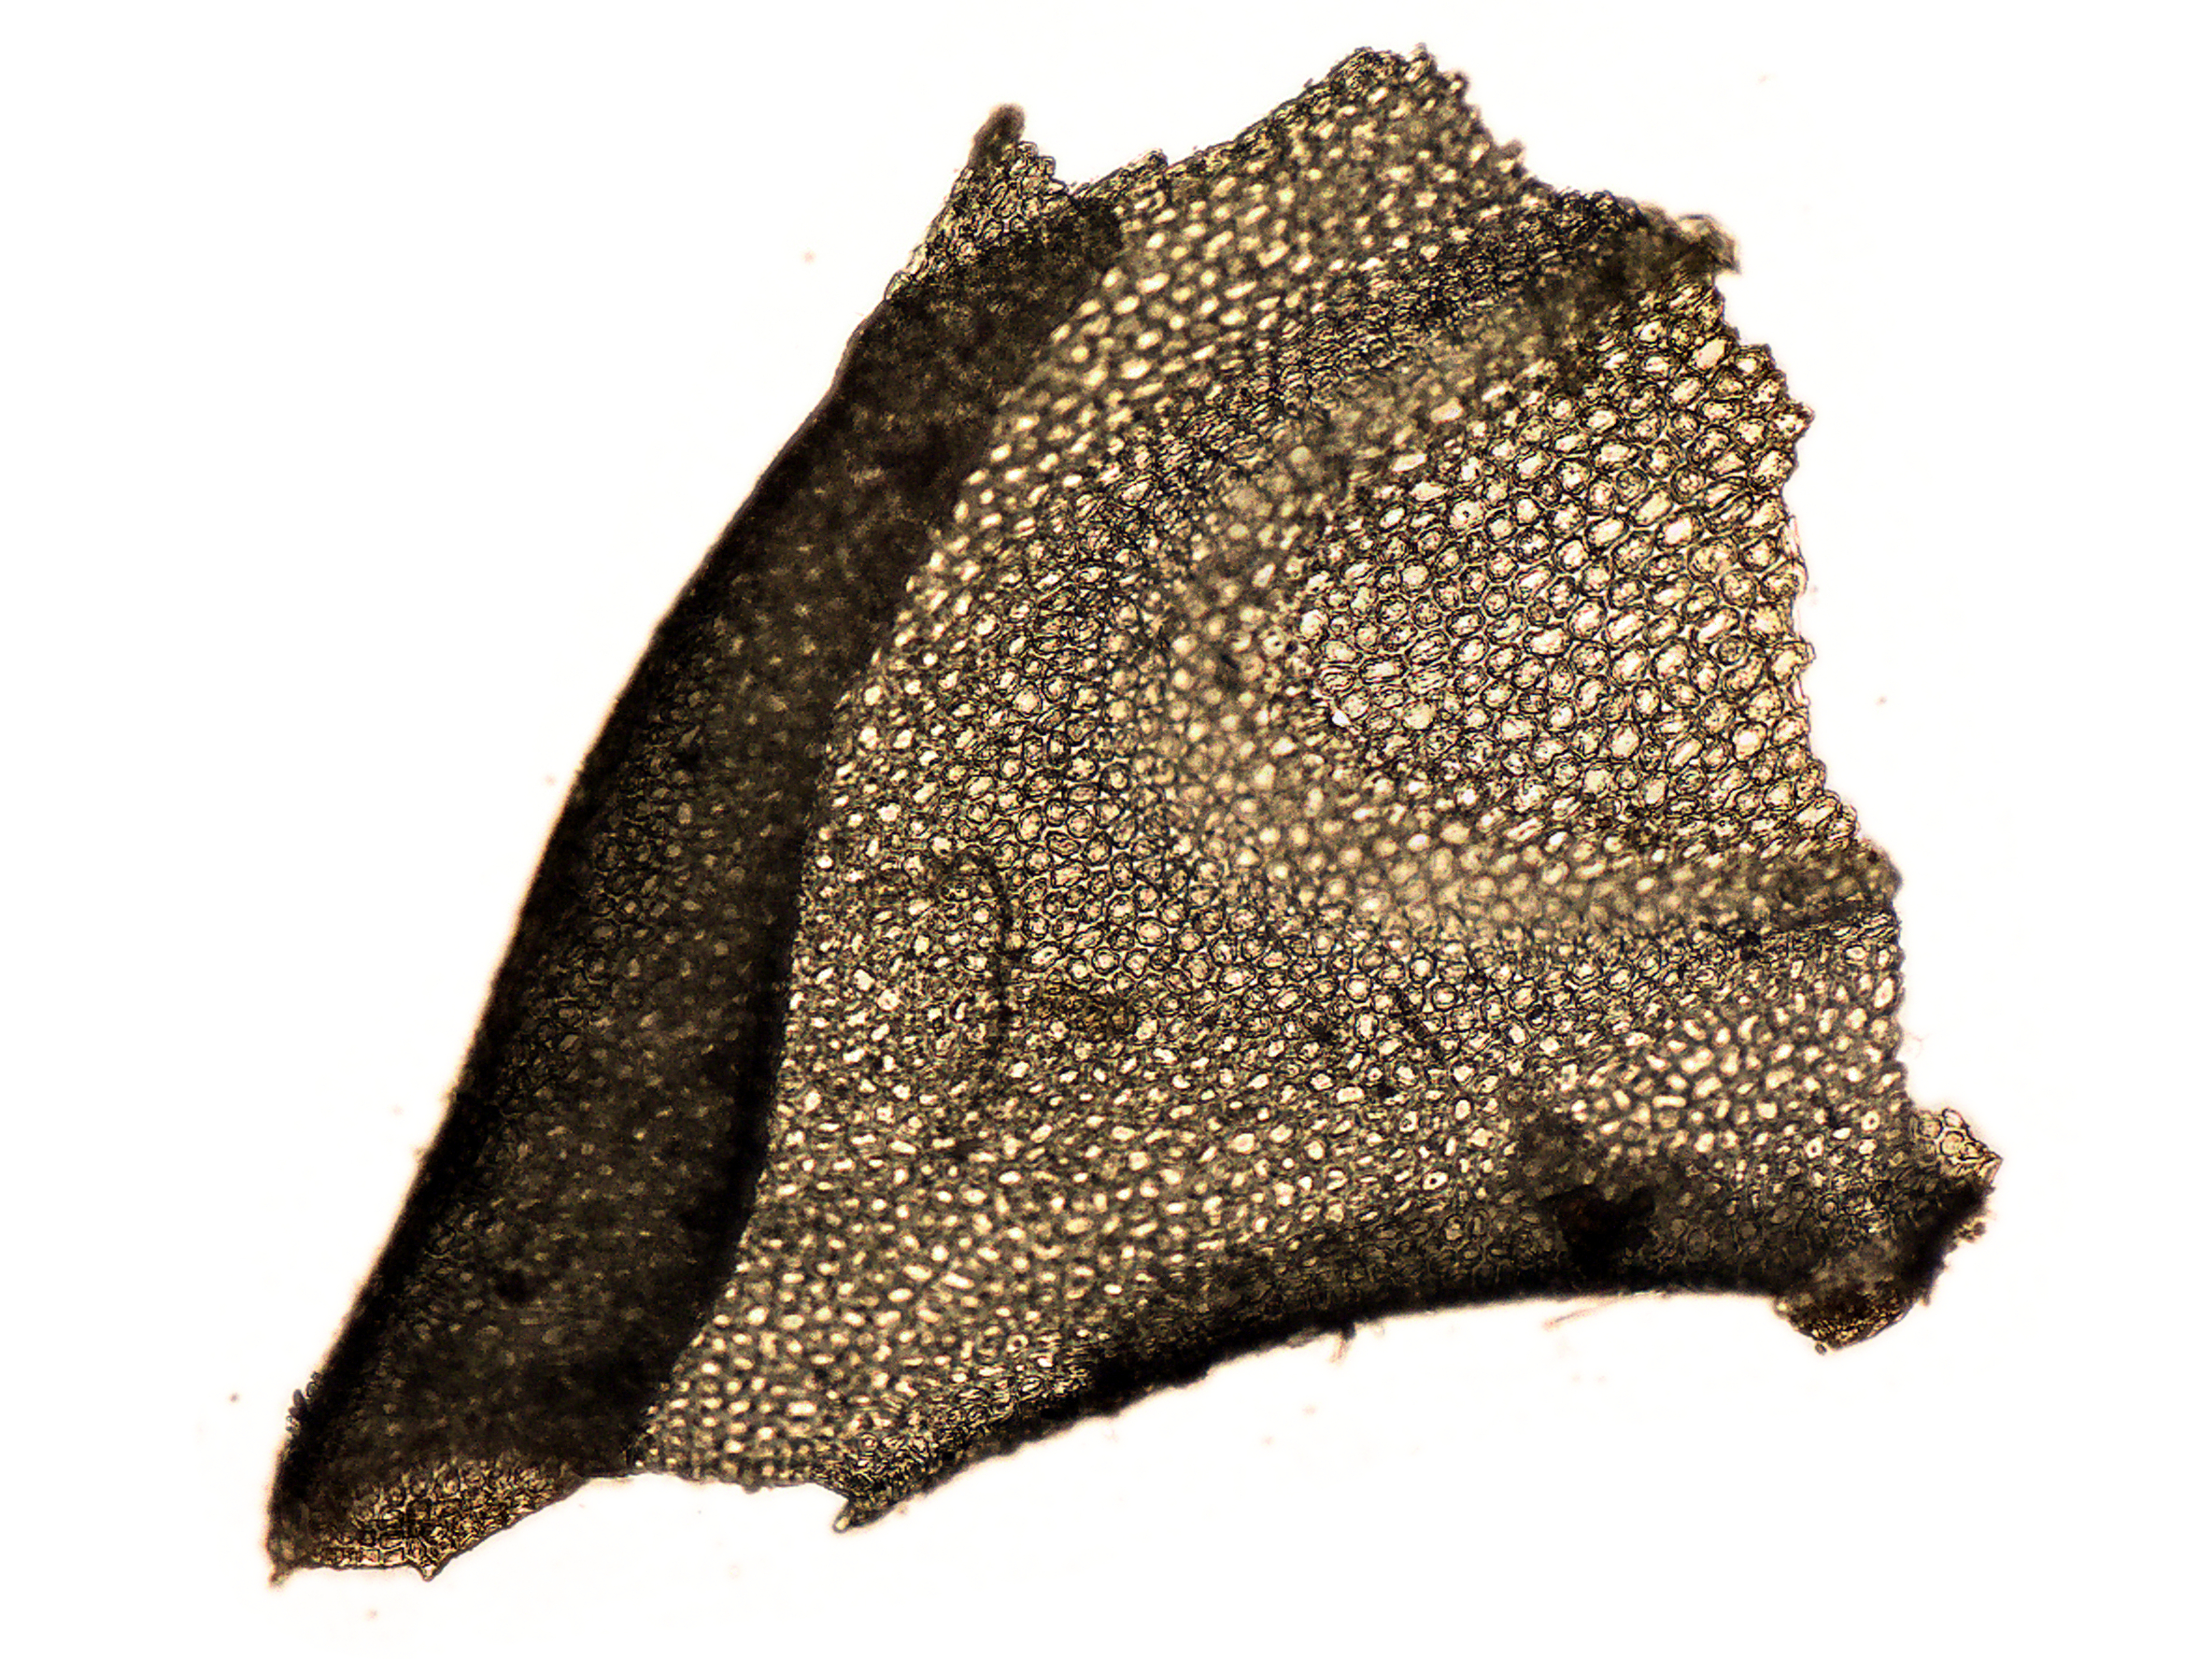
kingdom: Plantae
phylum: Marchantiophyta
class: Jungermanniopsida
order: Jungermanniales
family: Plagiochilaceae
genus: Plagiochila
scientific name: Plagiochila angusta
